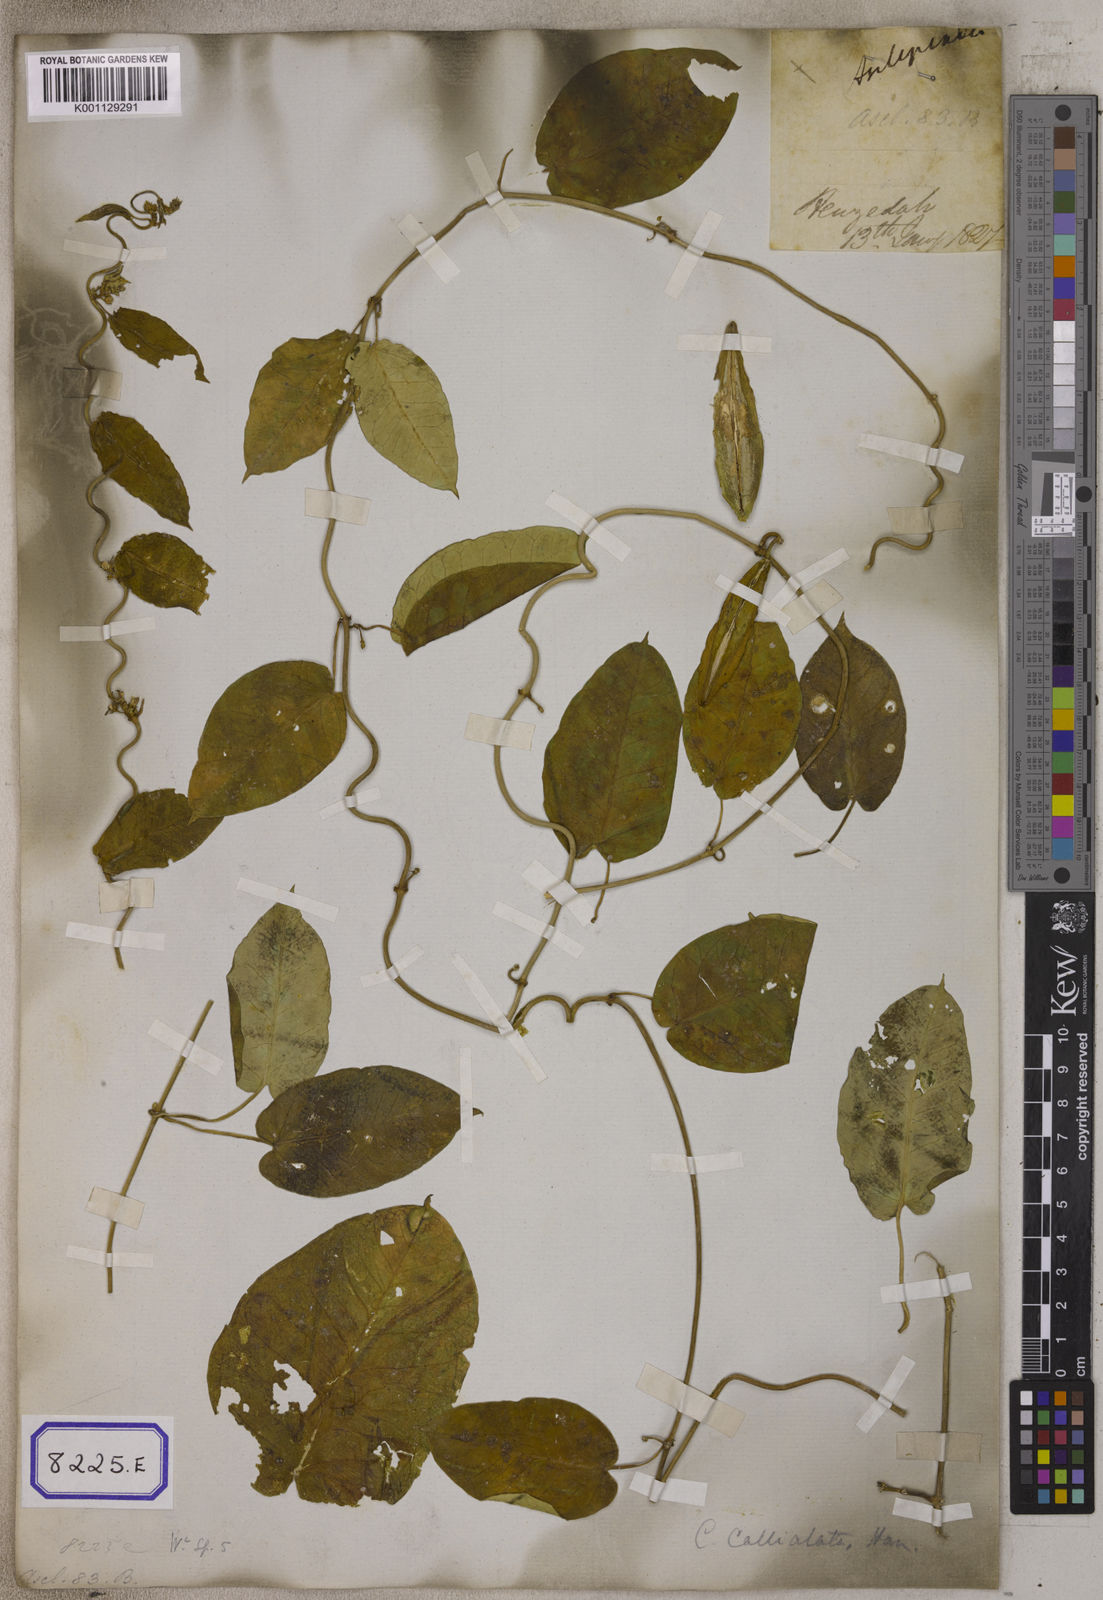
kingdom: Plantae
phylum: Tracheophyta
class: Magnoliopsida
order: Gentianales
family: Apocynaceae
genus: Cynanchum
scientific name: Cynanchum tunicatum
